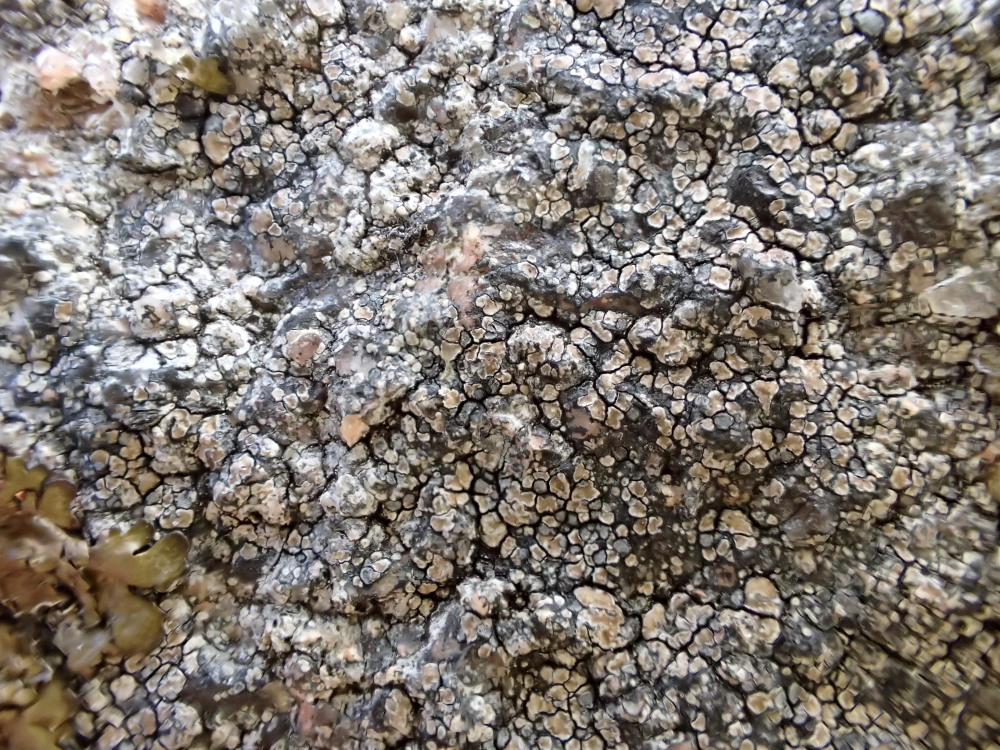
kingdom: Fungi
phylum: Ascomycota
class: Lecanoromycetes
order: Lecideales
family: Lecideaceae
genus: Lecidea
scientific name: Lecidea fuscoatra
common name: rudret skivelav
